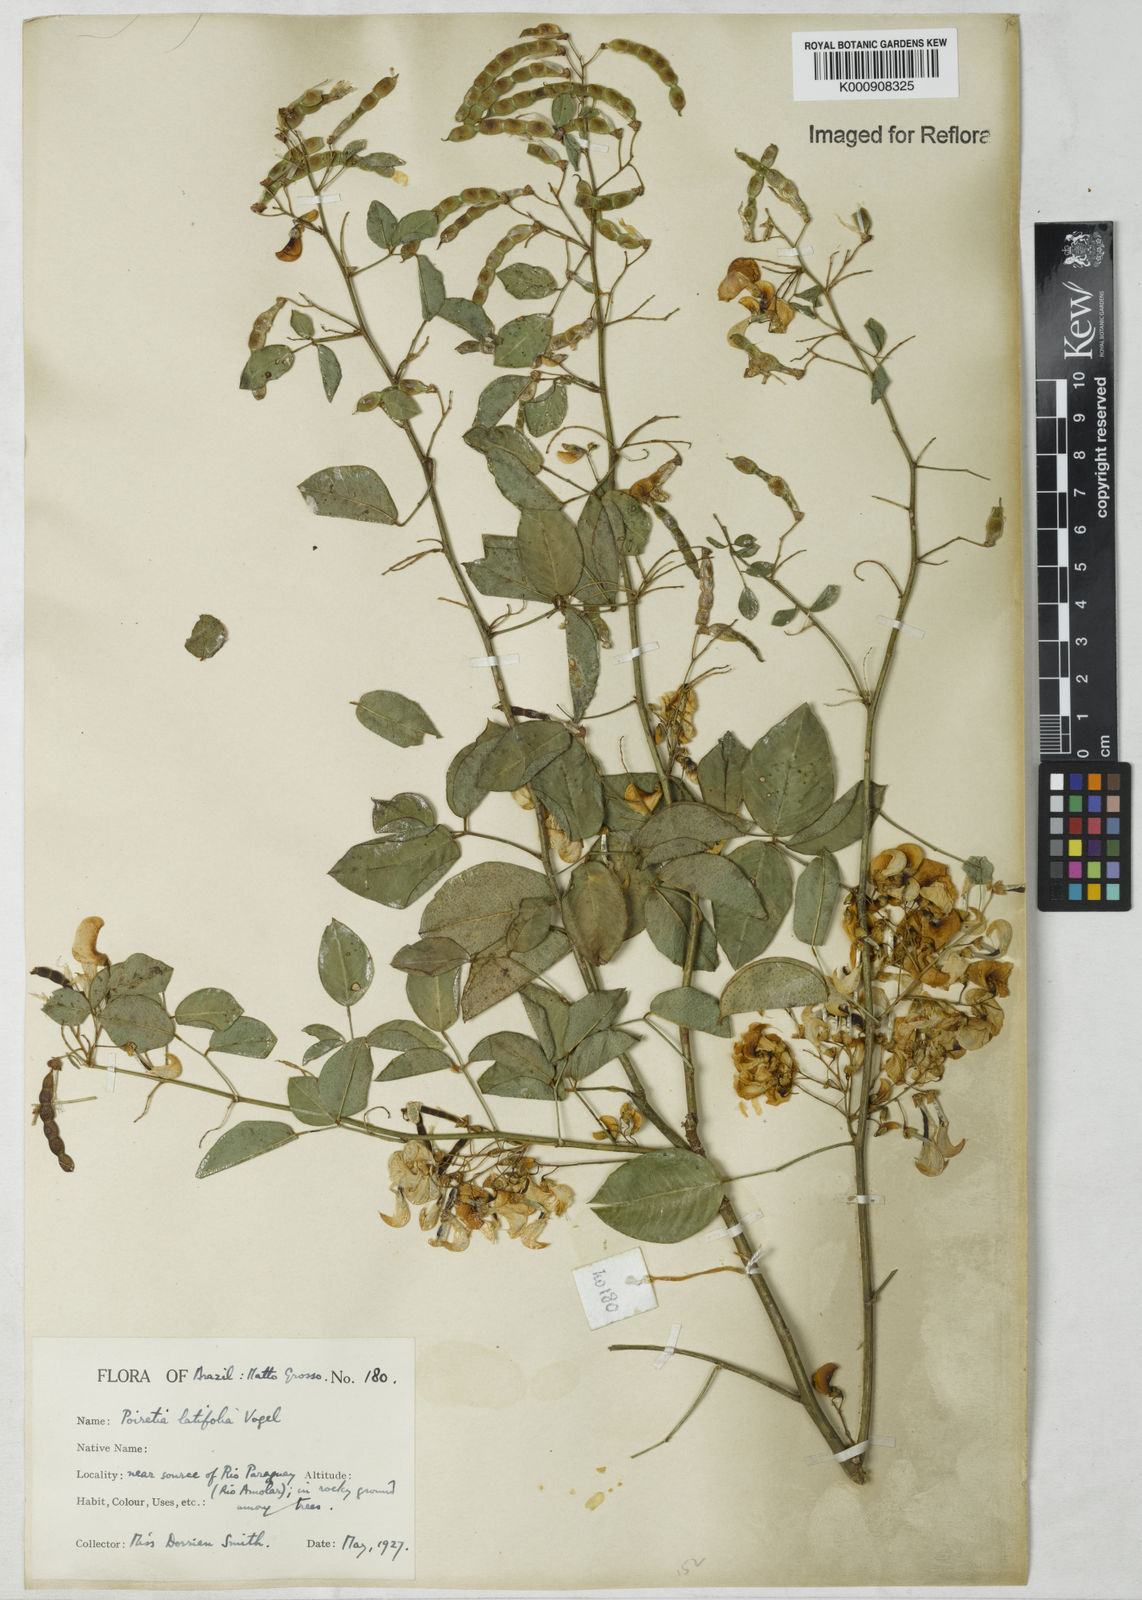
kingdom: Plantae
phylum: Tracheophyta
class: Magnoliopsida
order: Fabales
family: Fabaceae
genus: Poiretia
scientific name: Poiretia latifolia
